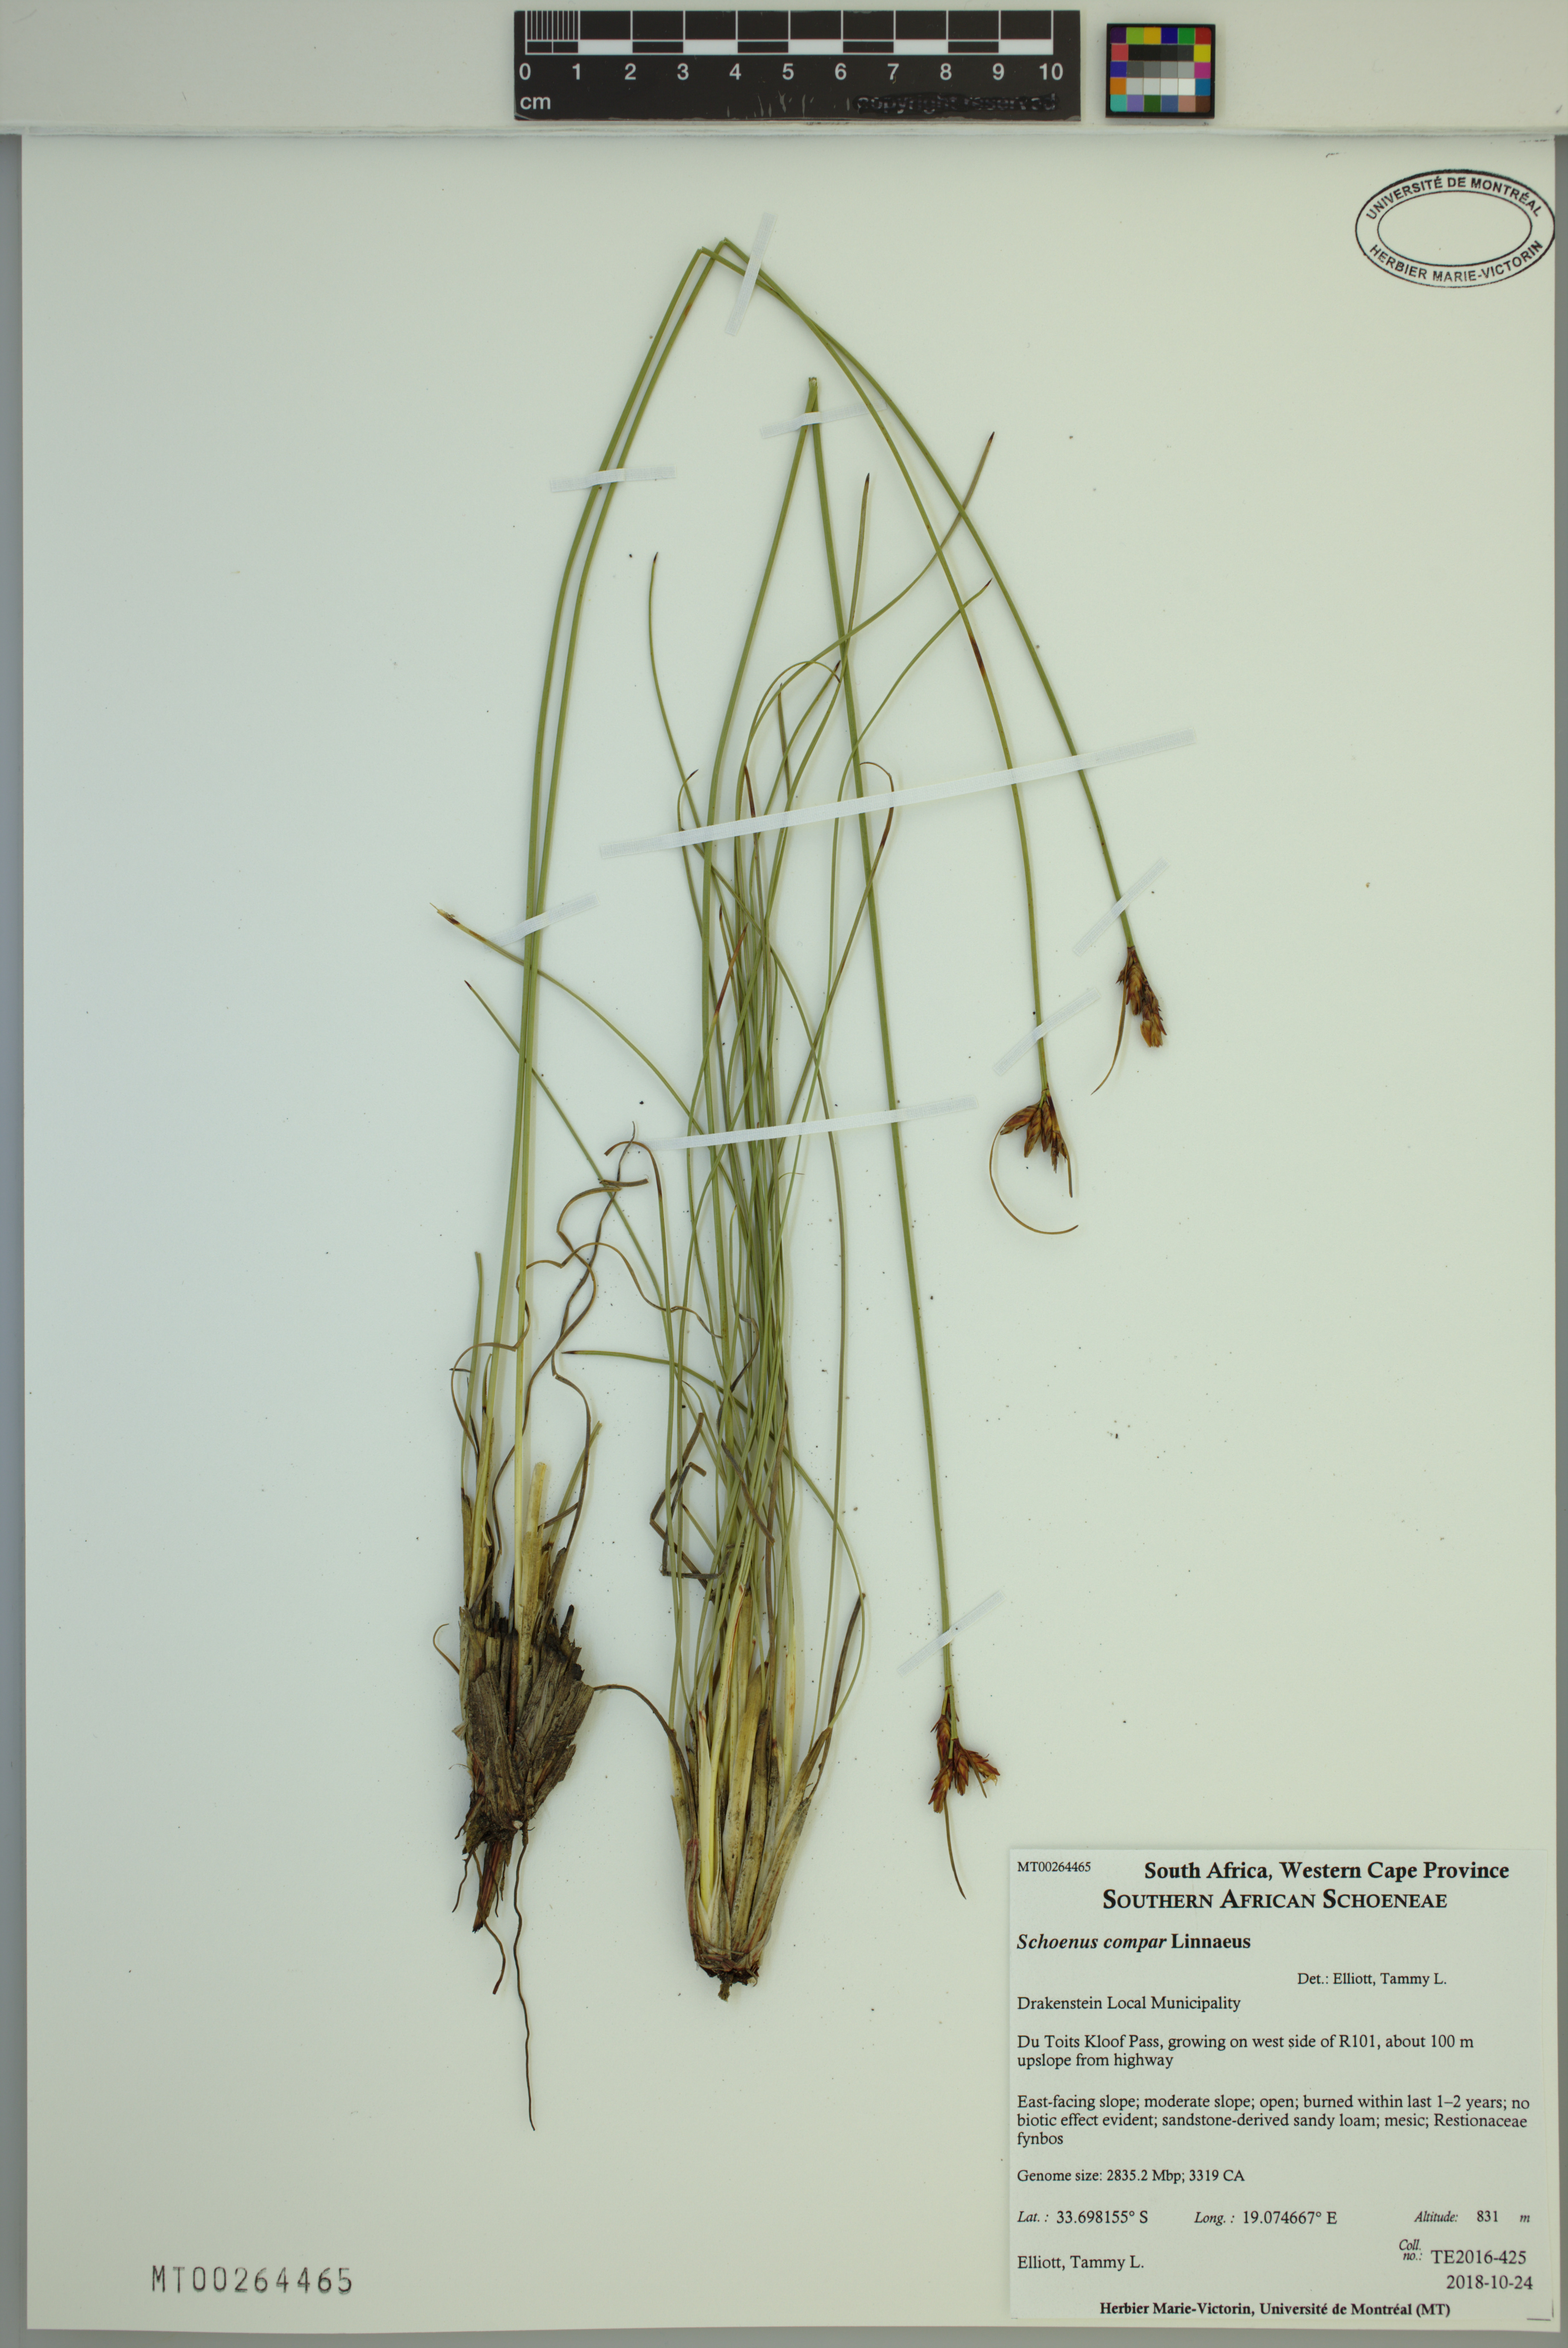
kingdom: Plantae
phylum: Tracheophyta
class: Liliopsida
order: Poales
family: Cyperaceae
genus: Schoenus
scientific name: Schoenus compar
